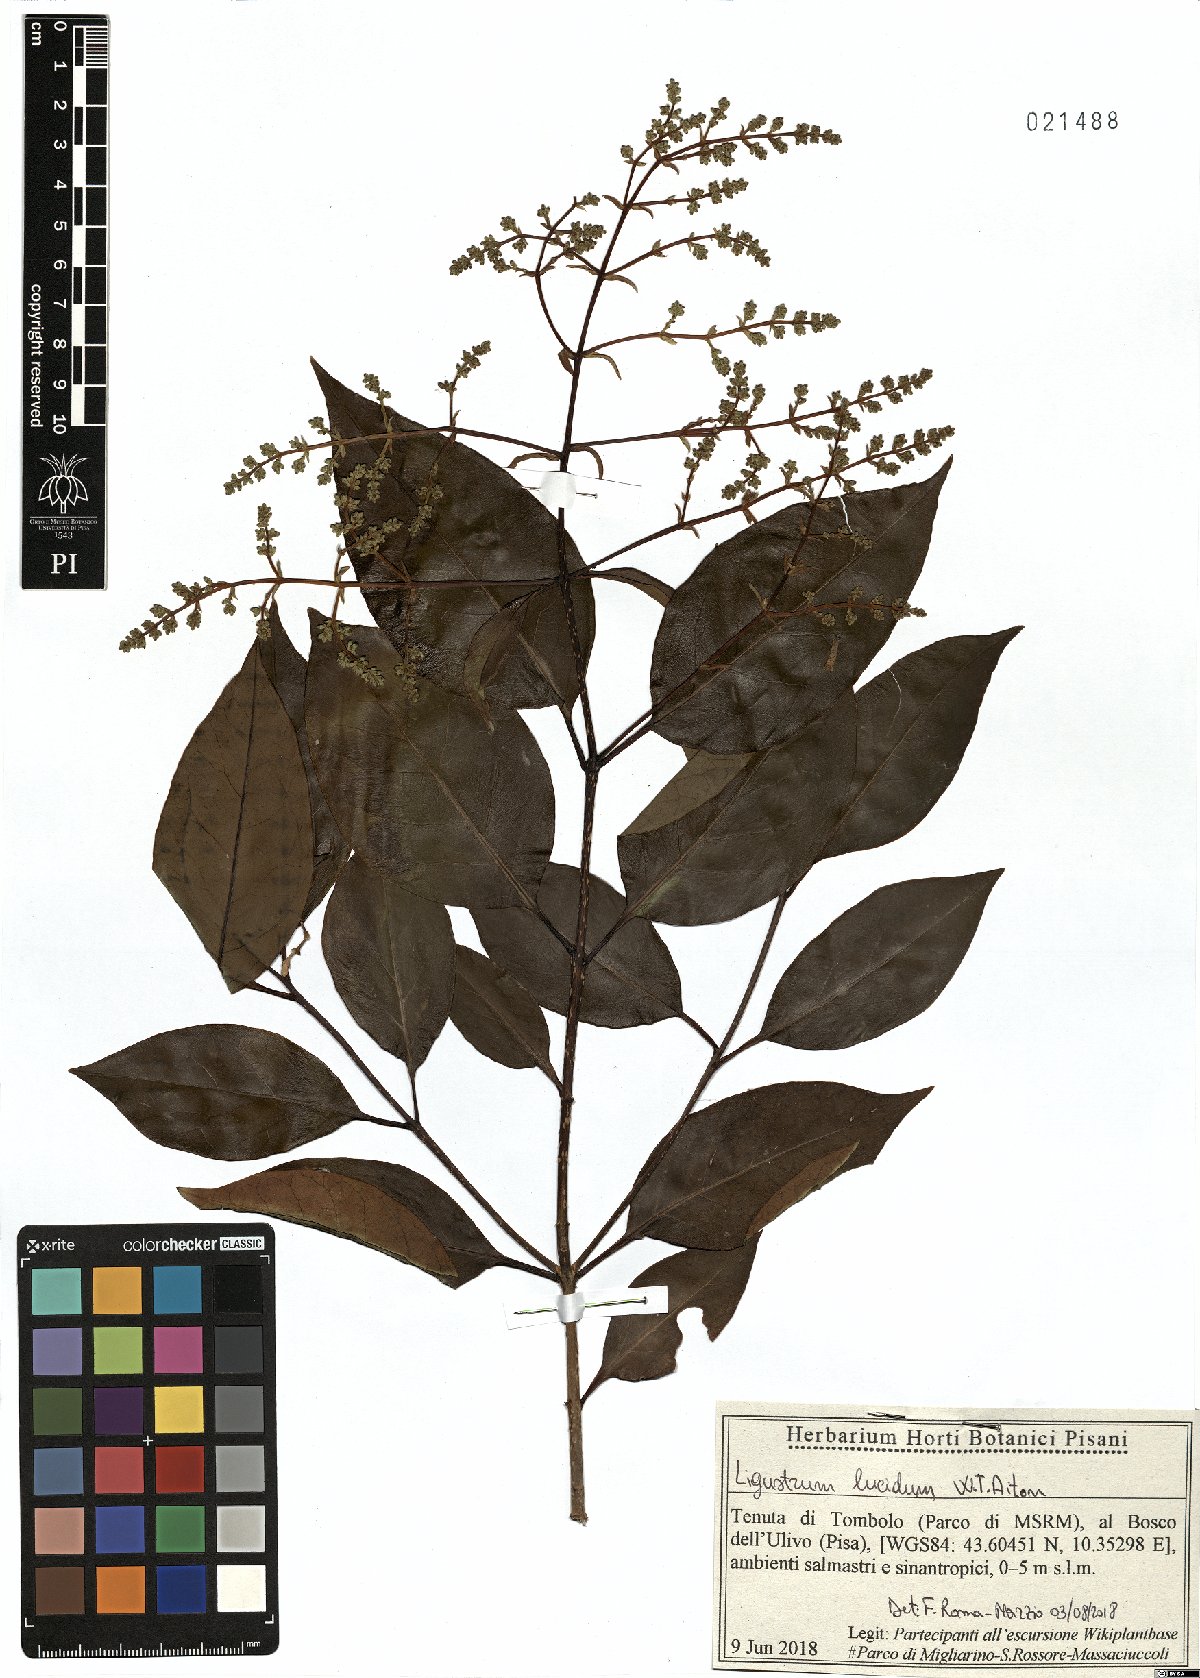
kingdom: Plantae
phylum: Tracheophyta
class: Magnoliopsida
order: Lamiales
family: Oleaceae
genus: Ligustrum
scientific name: Ligustrum lucidum
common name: Glossy privet
